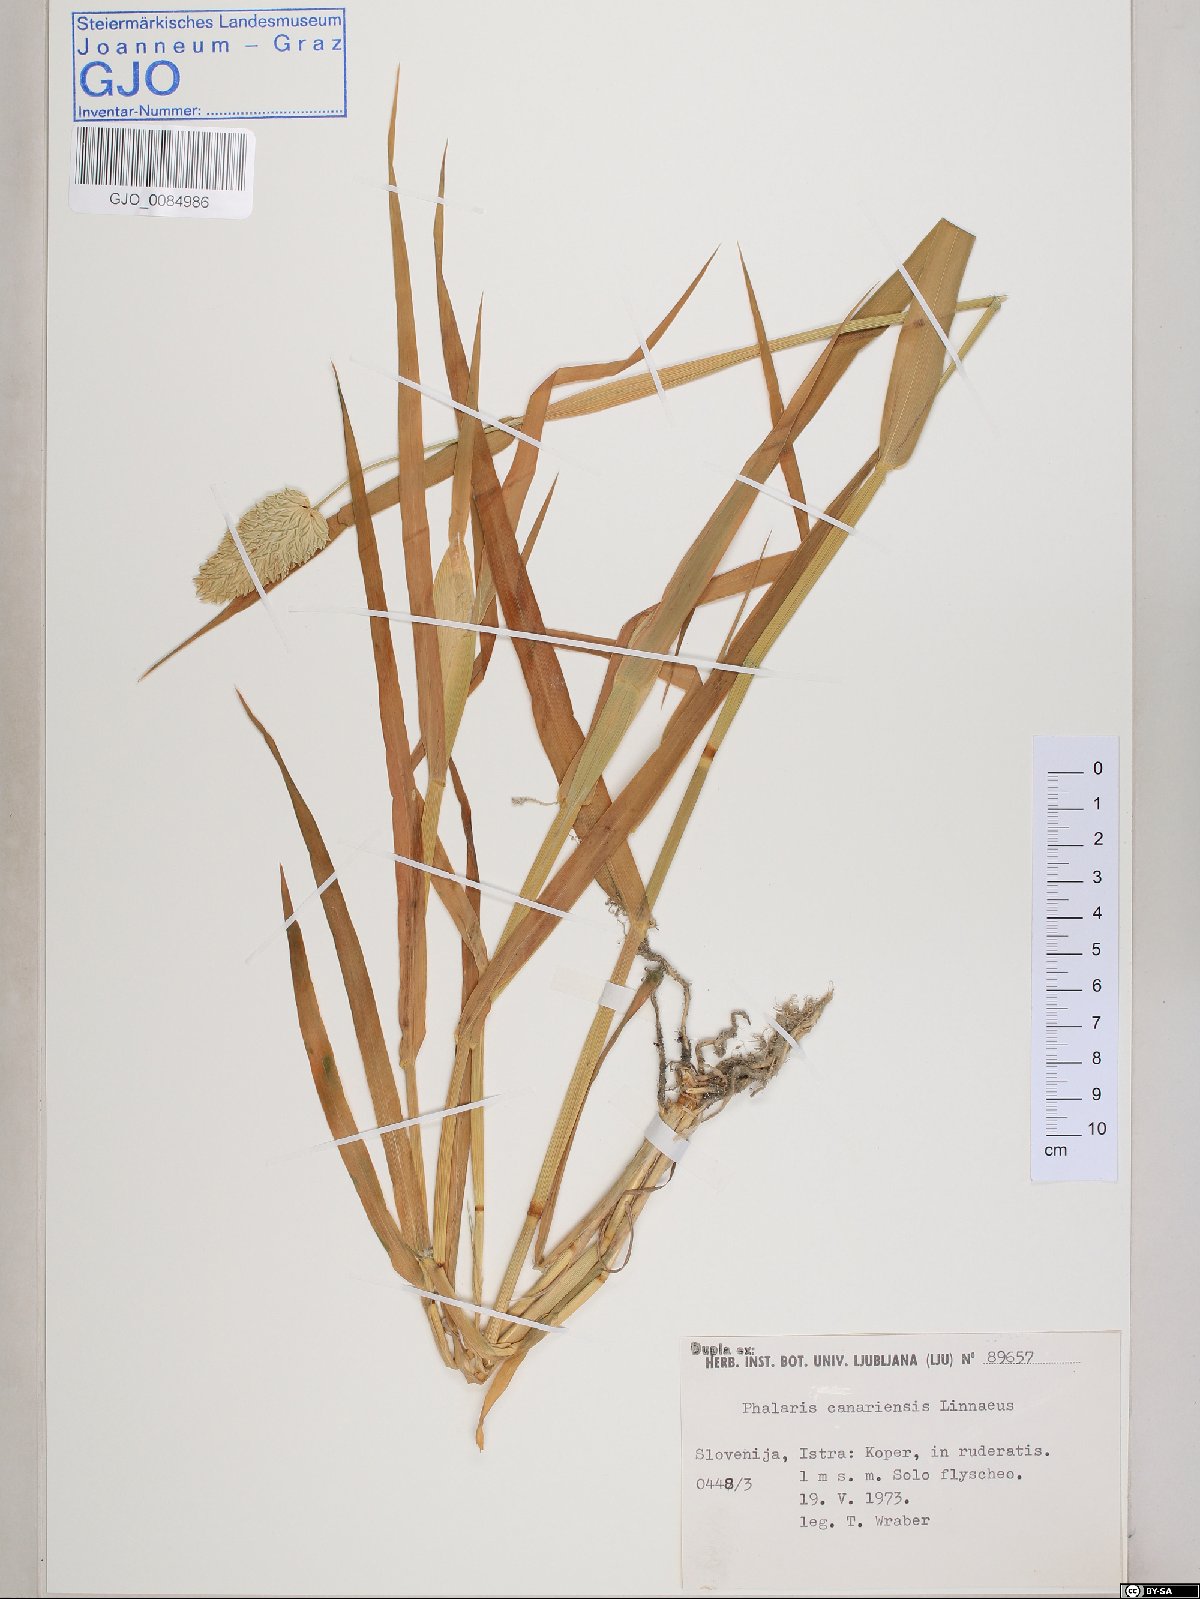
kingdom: Plantae
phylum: Tracheophyta
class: Liliopsida
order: Poales
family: Poaceae
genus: Phalaris
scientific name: Phalaris canariensis
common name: Annual canarygrass
